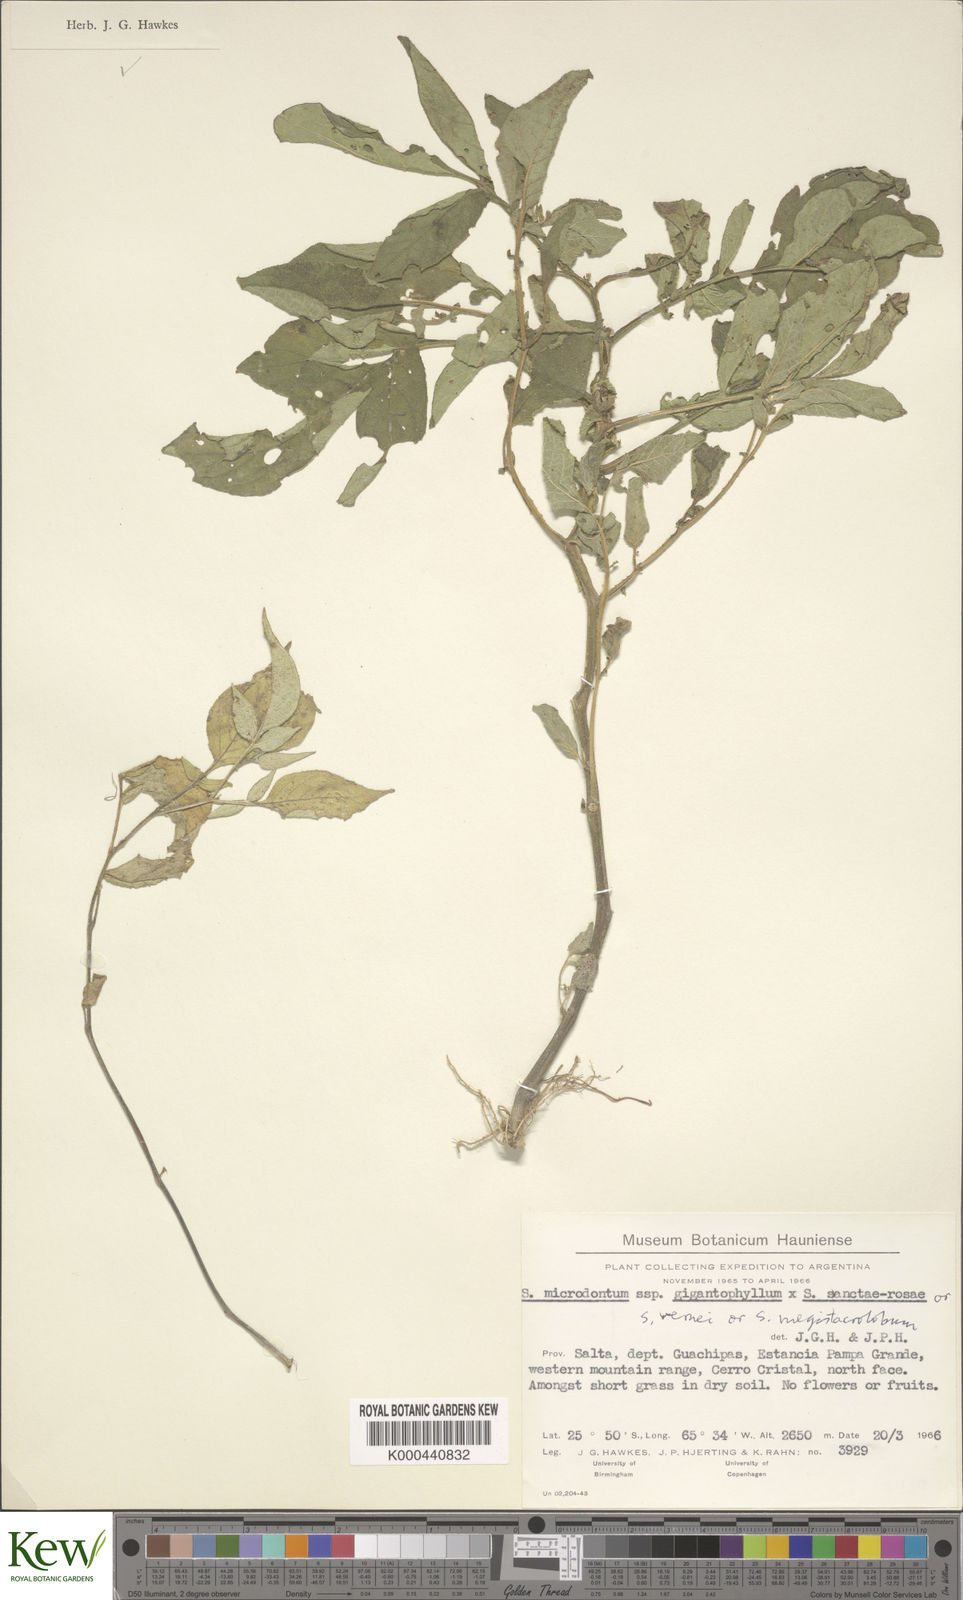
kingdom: Plantae
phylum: Tracheophyta
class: Magnoliopsida
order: Solanales
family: Solanaceae
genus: Solanum
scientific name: Solanum microdontum
